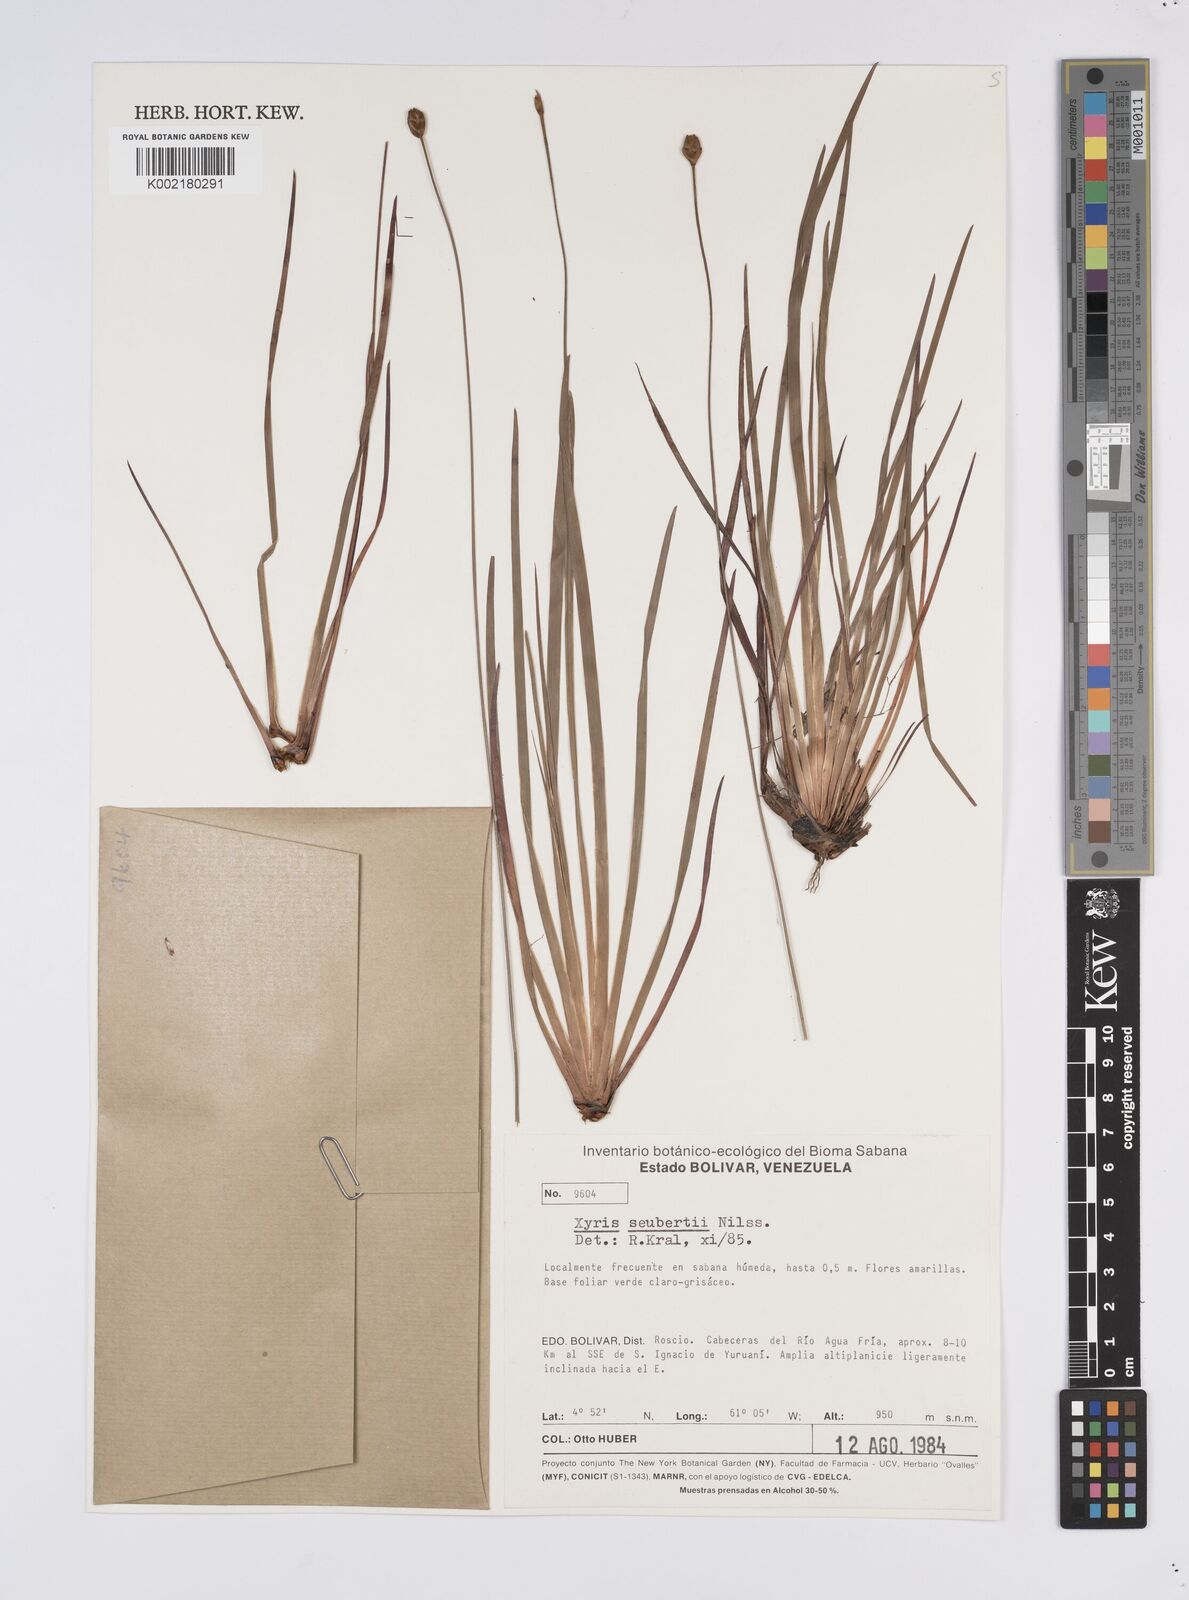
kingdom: Plantae
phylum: Tracheophyta
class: Liliopsida
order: Poales
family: Xyridaceae
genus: Xyris
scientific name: Xyris seubertii
